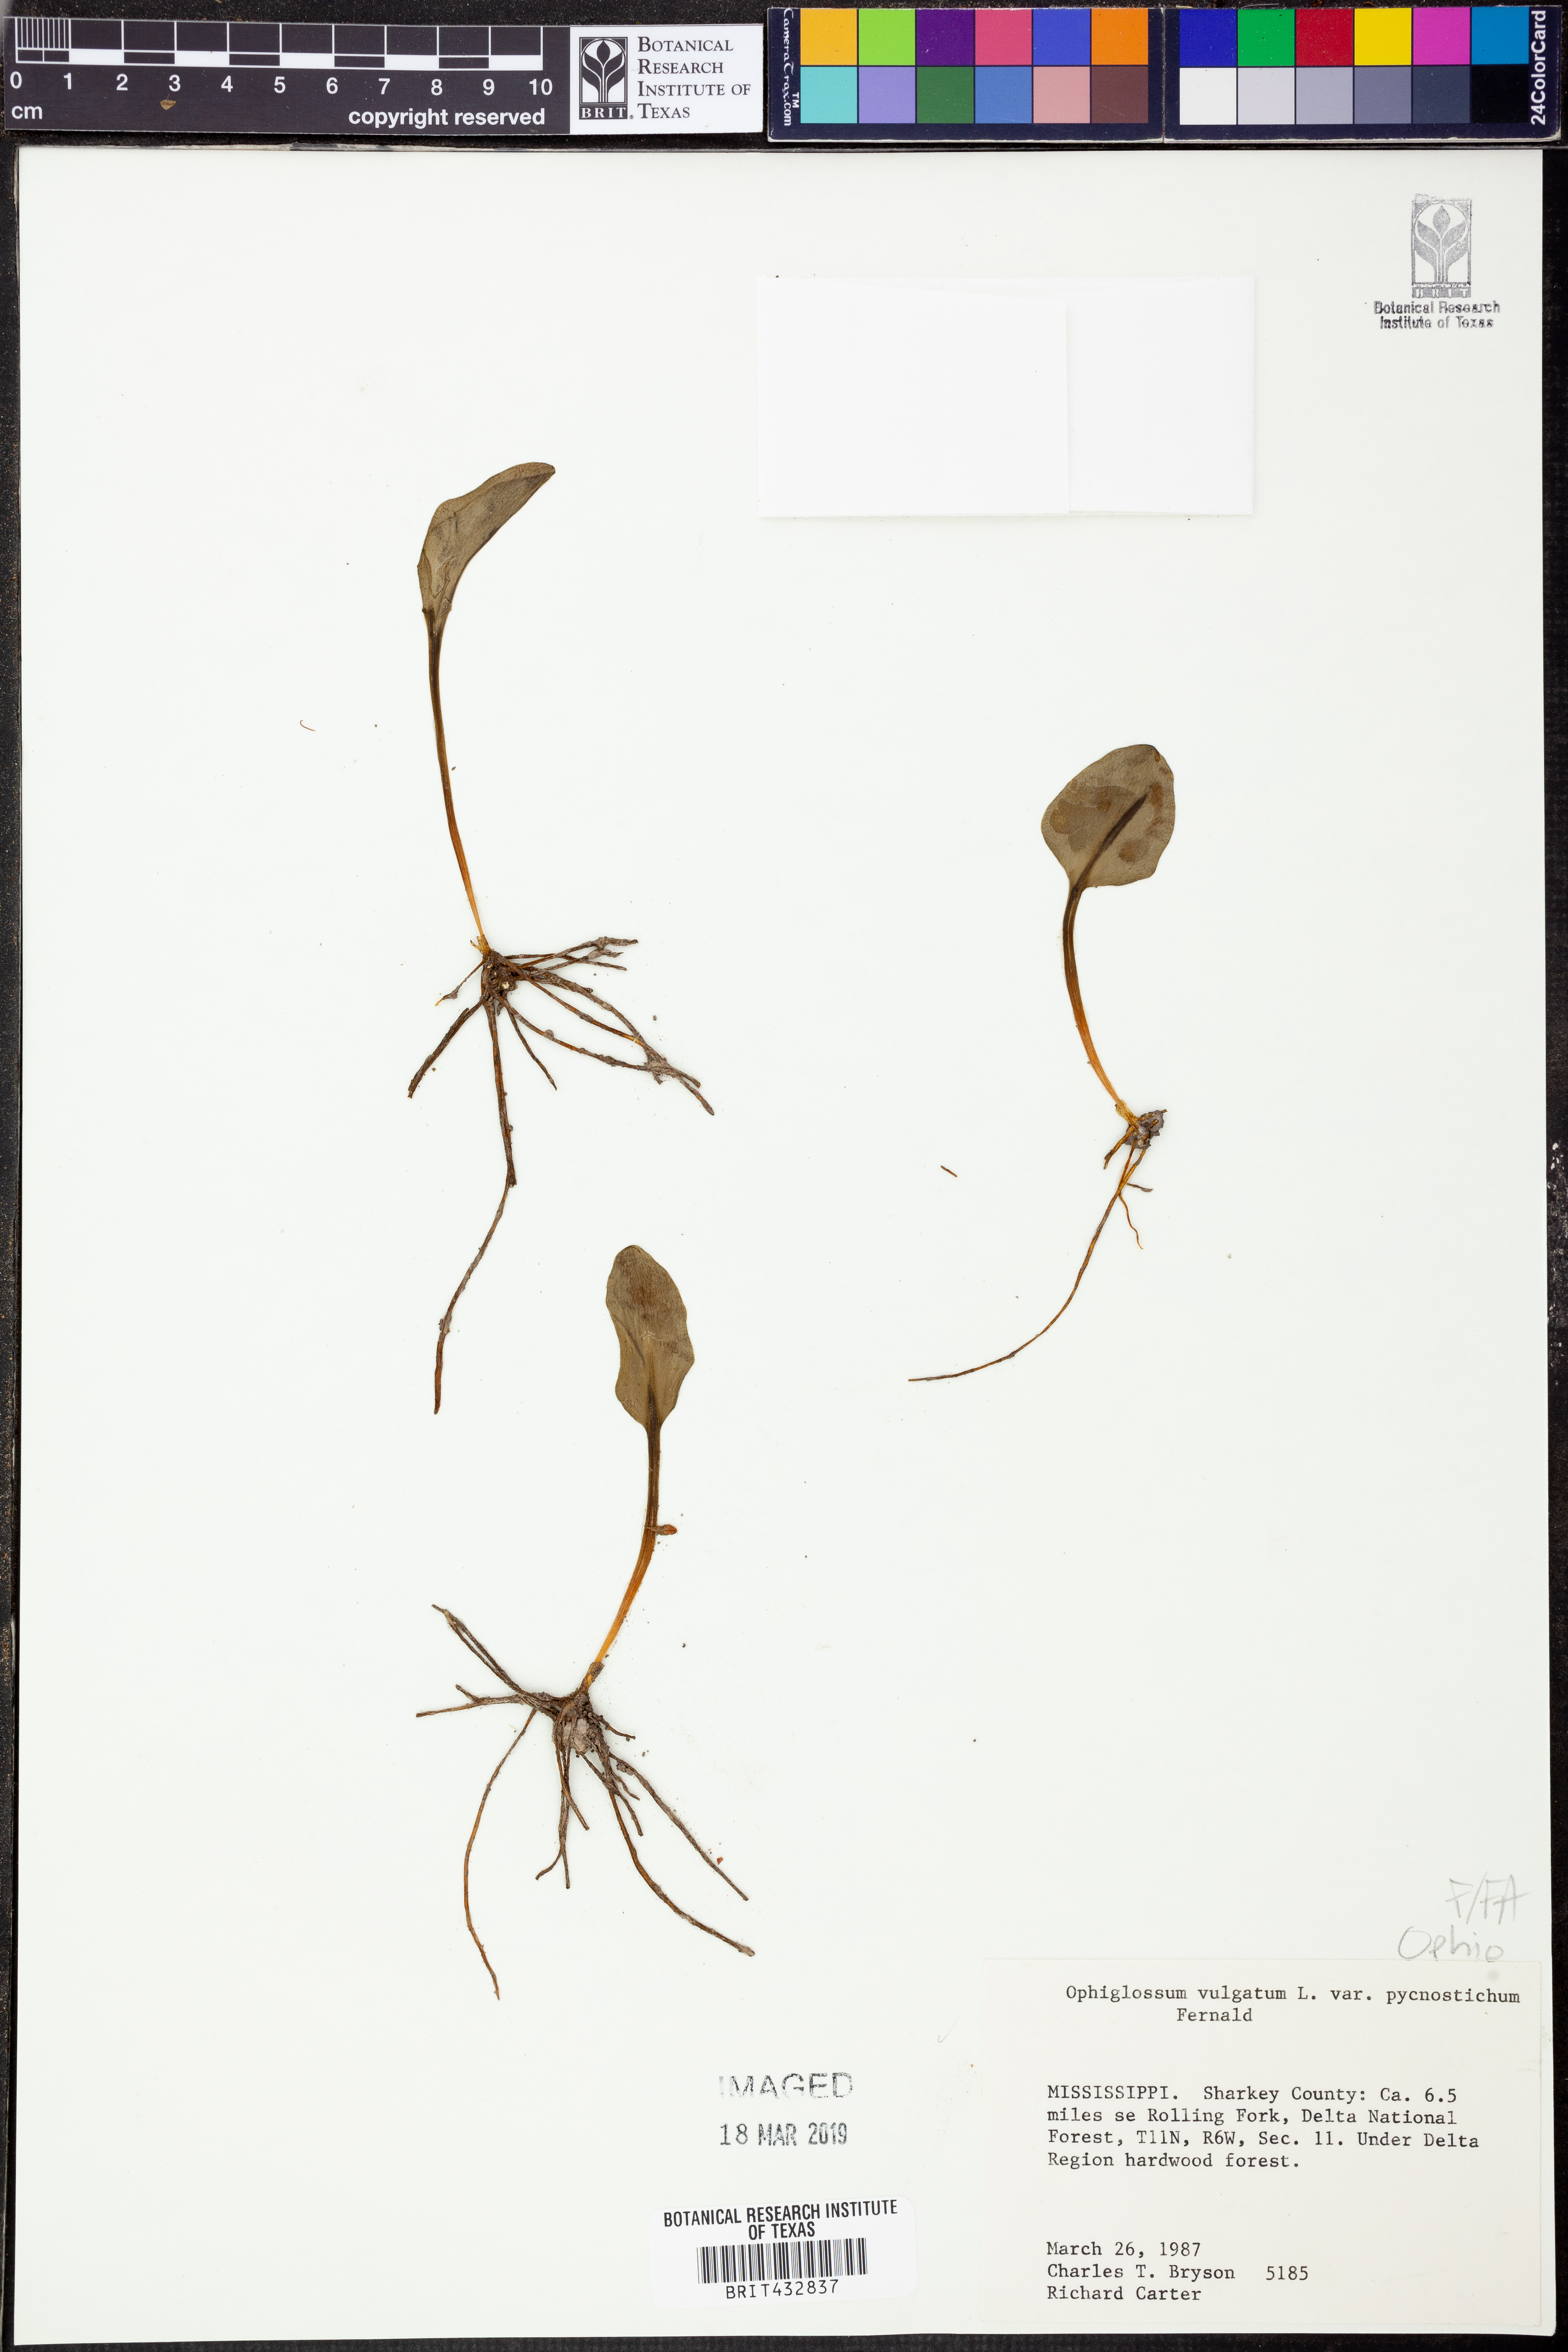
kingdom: Plantae
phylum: Tracheophyta
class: Polypodiopsida
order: Ophioglossales
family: Ophioglossaceae
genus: Ophioglossum
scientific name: Ophioglossum vulgatum
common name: Adder's-tongue
